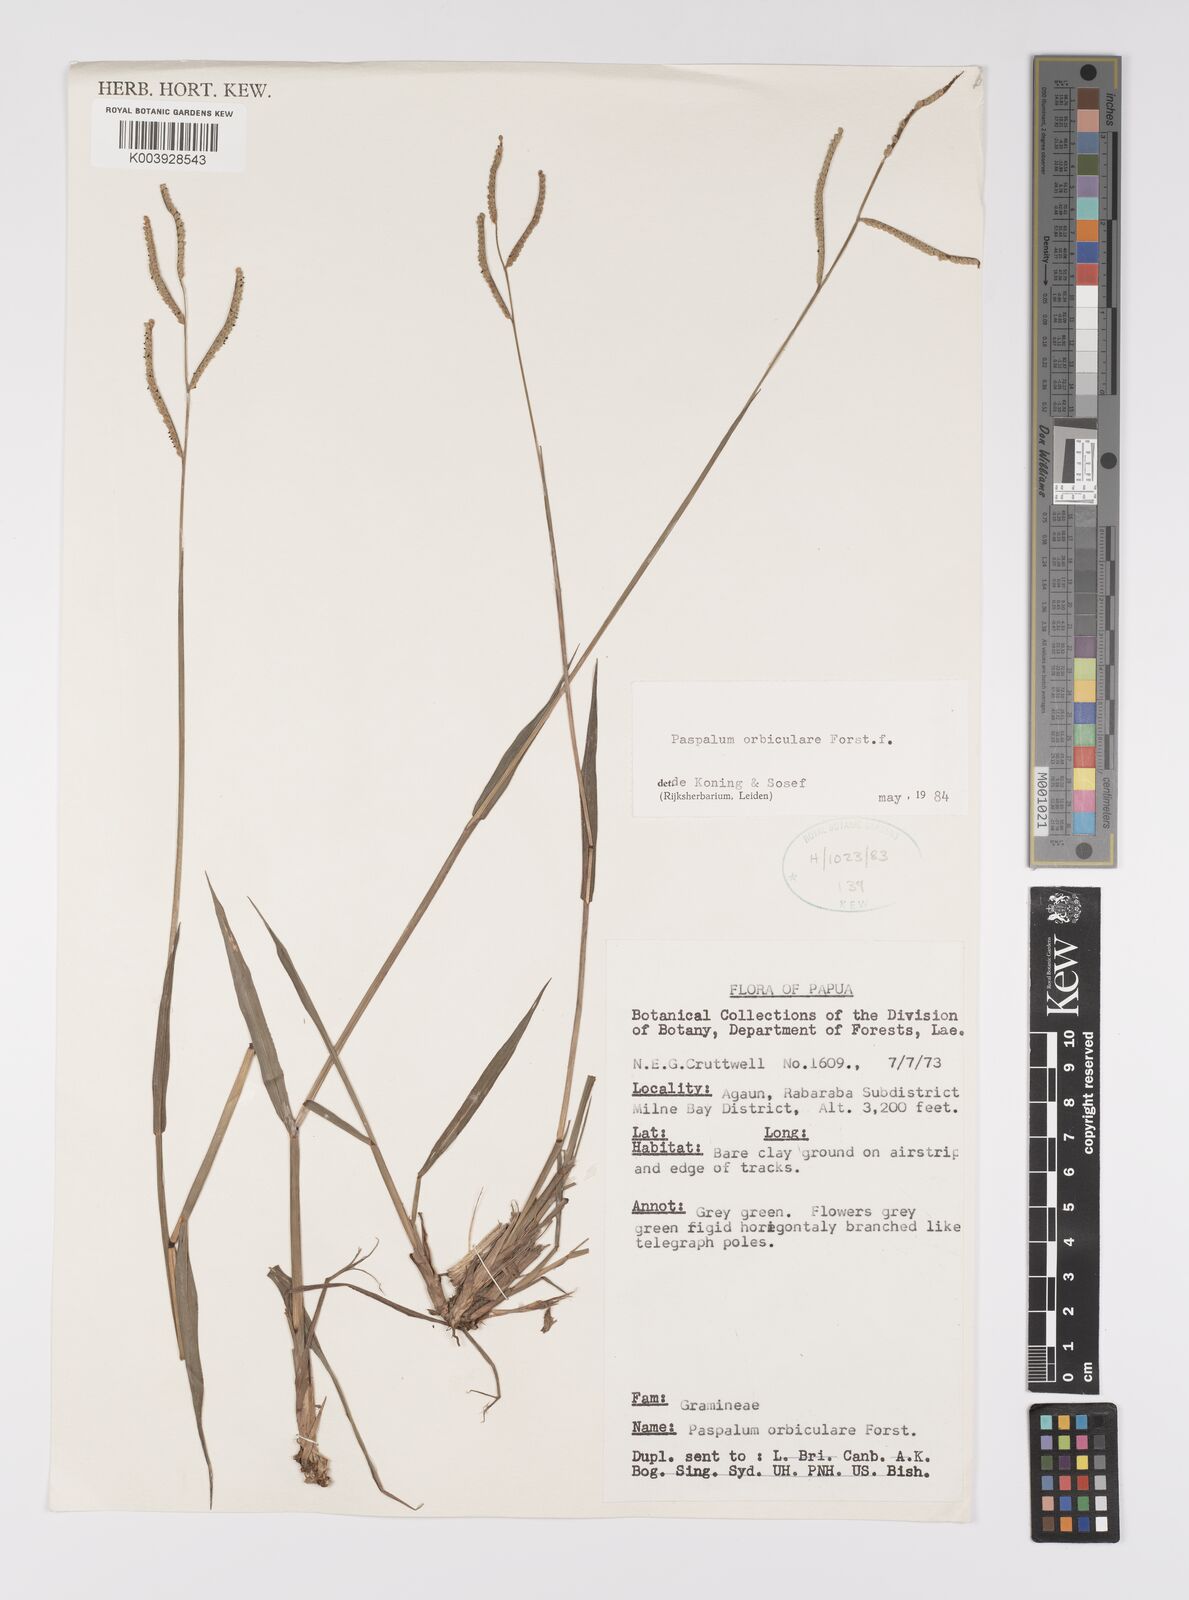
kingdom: Plantae
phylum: Tracheophyta
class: Liliopsida
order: Poales
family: Poaceae
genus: Paspalum
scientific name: Paspalum scrobiculatum
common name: Kodo millet
